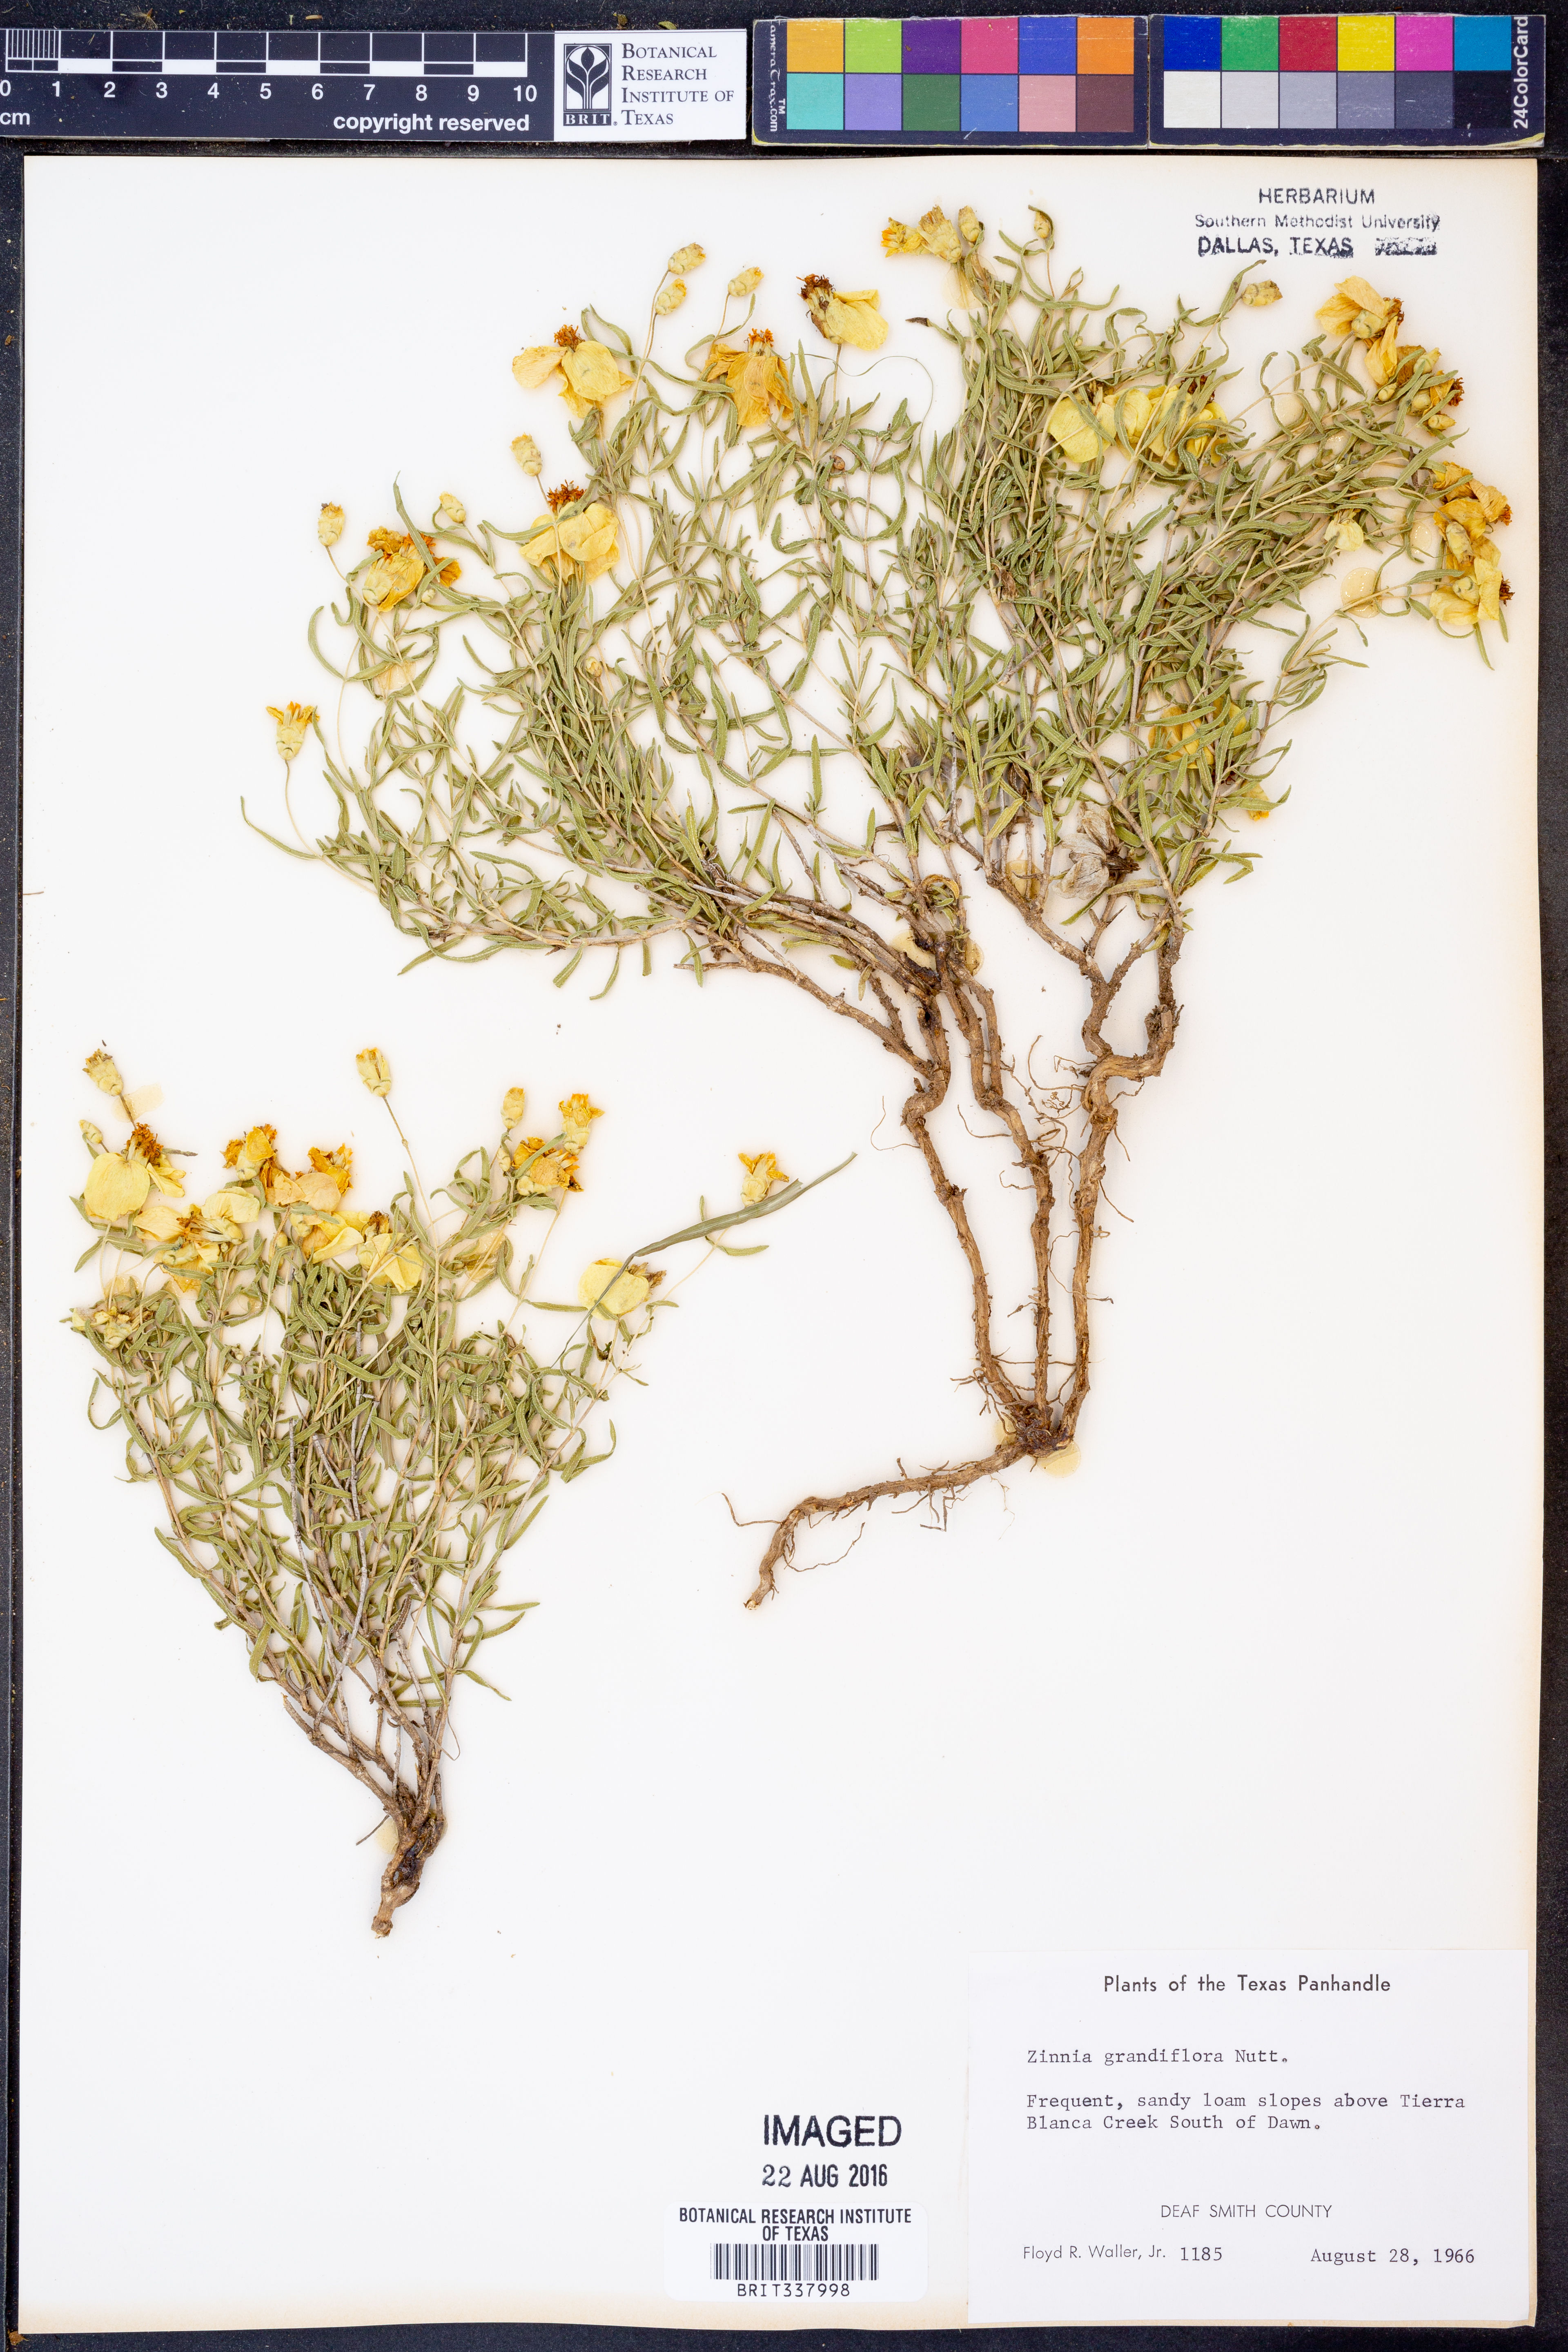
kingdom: Plantae
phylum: Tracheophyta
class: Magnoliopsida
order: Asterales
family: Asteraceae
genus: Zinnia
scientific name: Zinnia grandiflora
